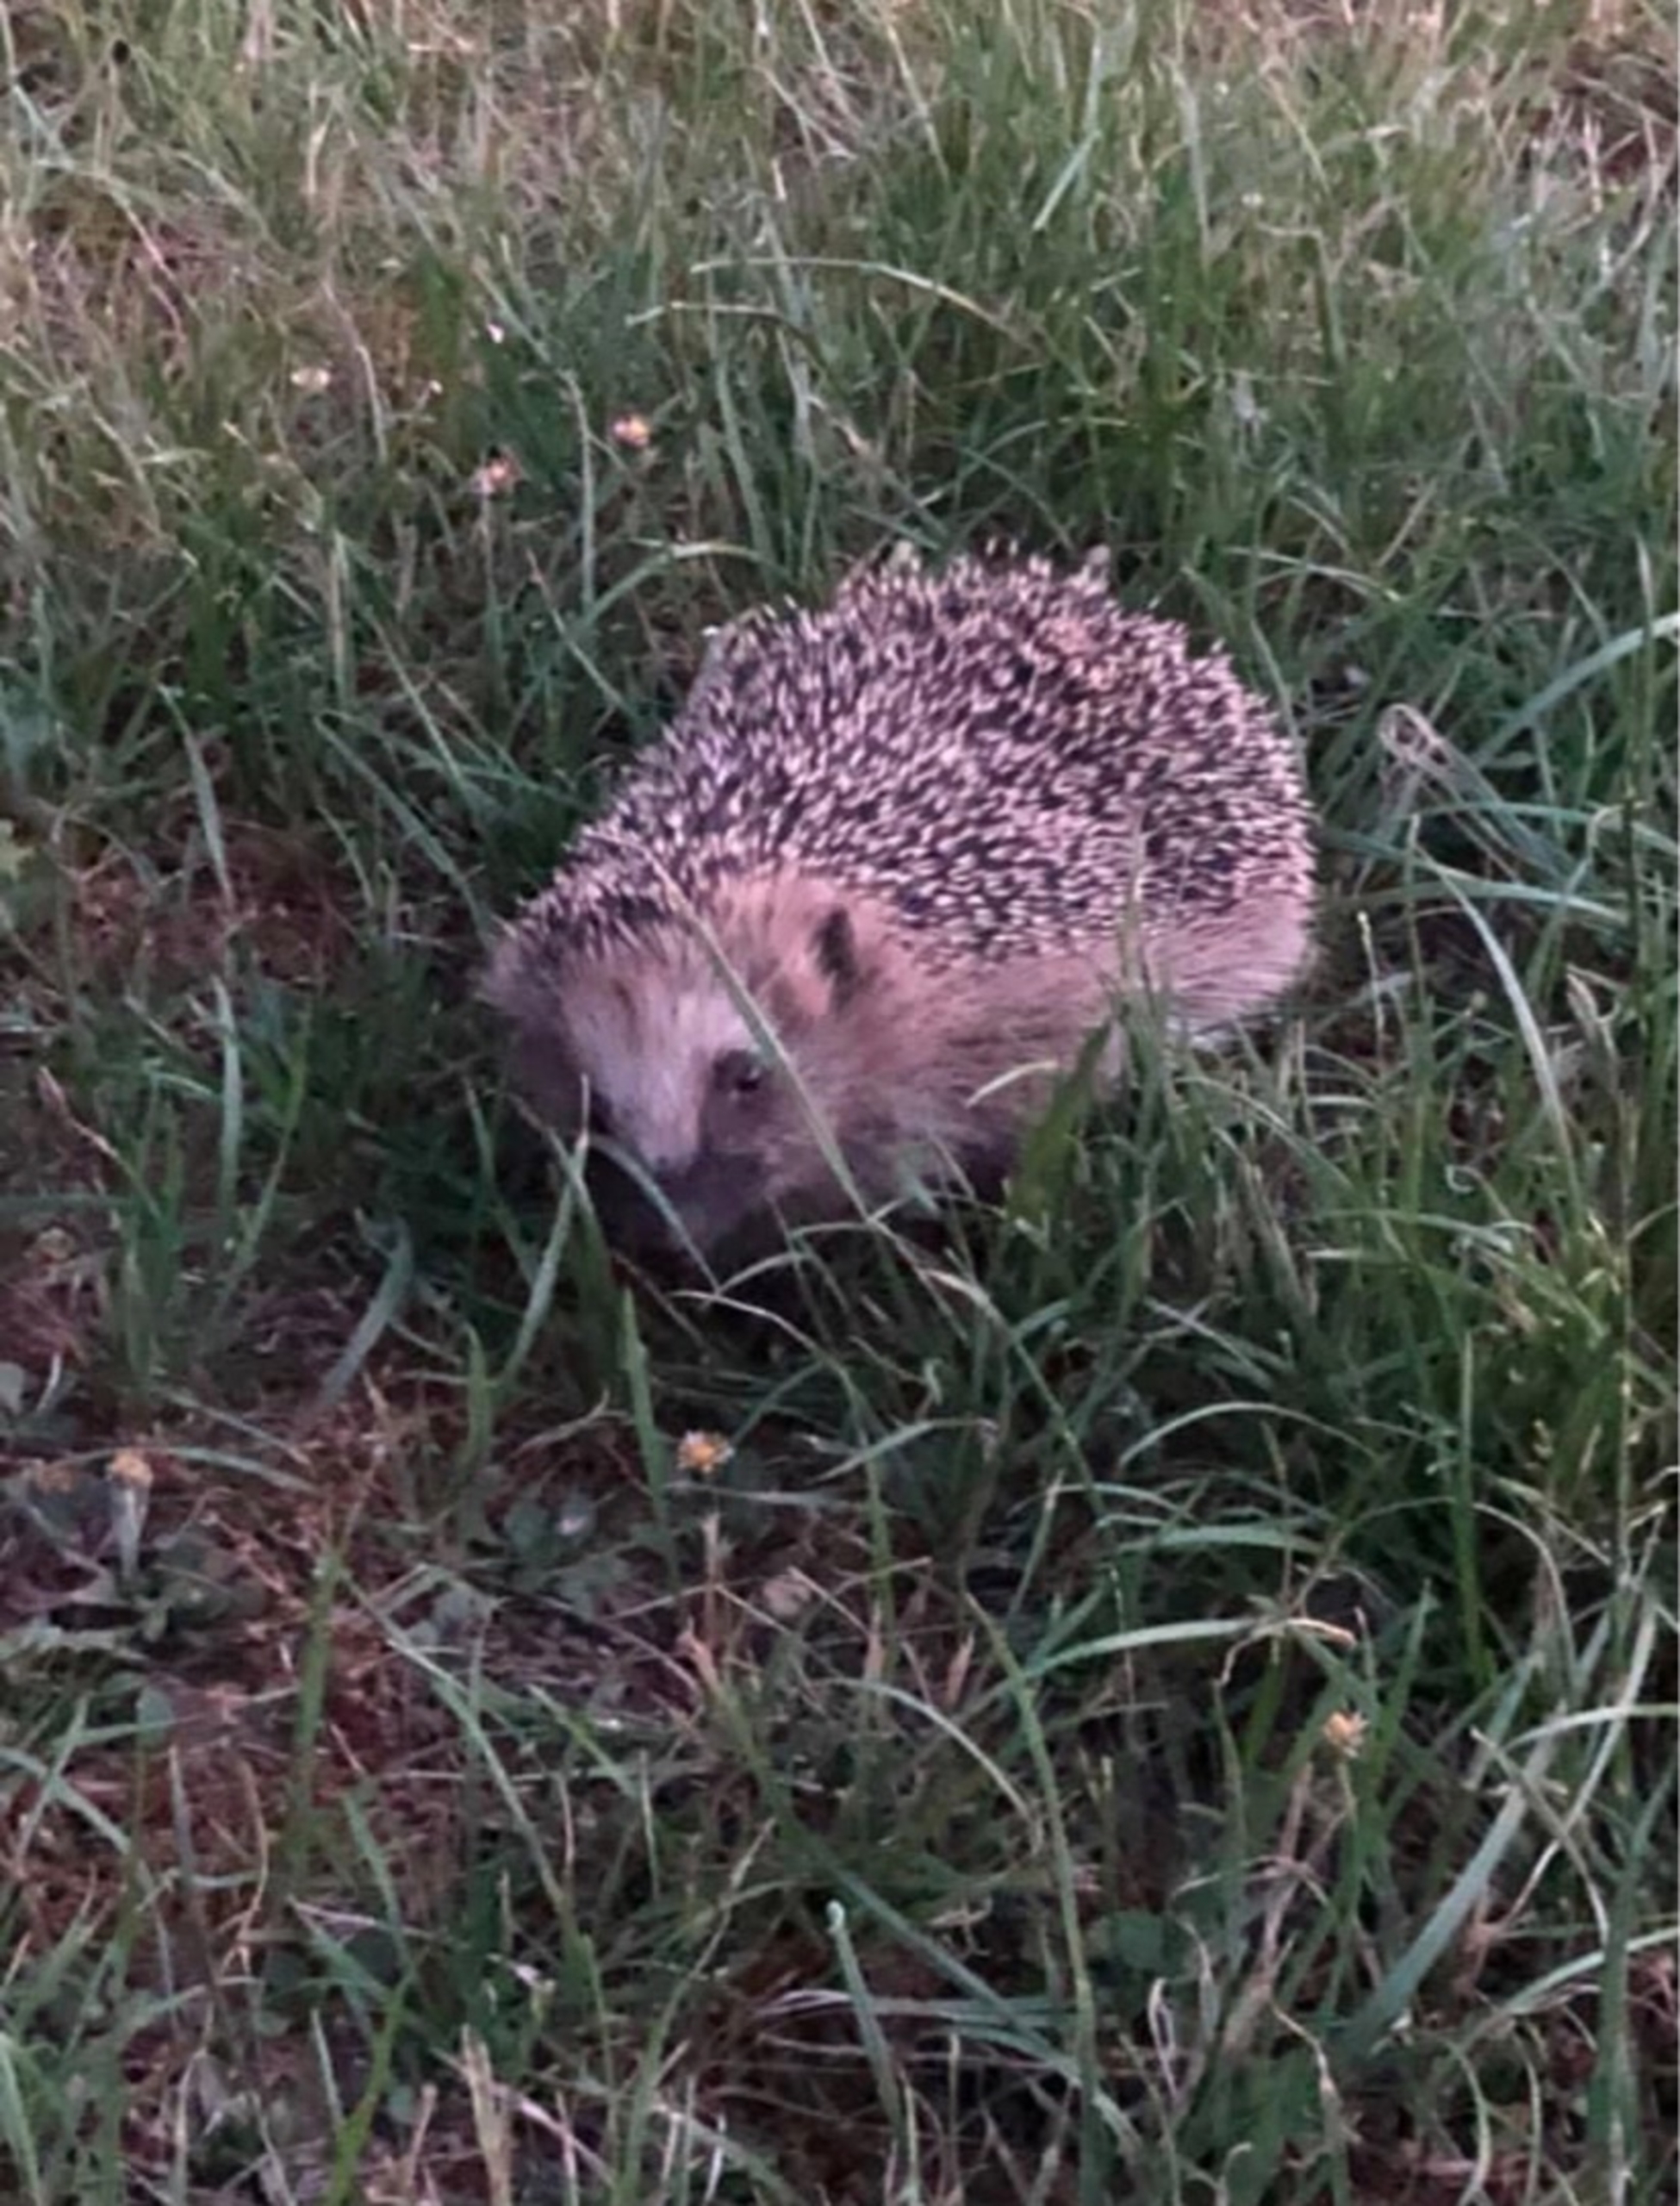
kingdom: Animalia
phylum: Chordata
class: Mammalia
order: Erinaceomorpha
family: Erinaceidae
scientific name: Erinaceidae
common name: Pindsvin
